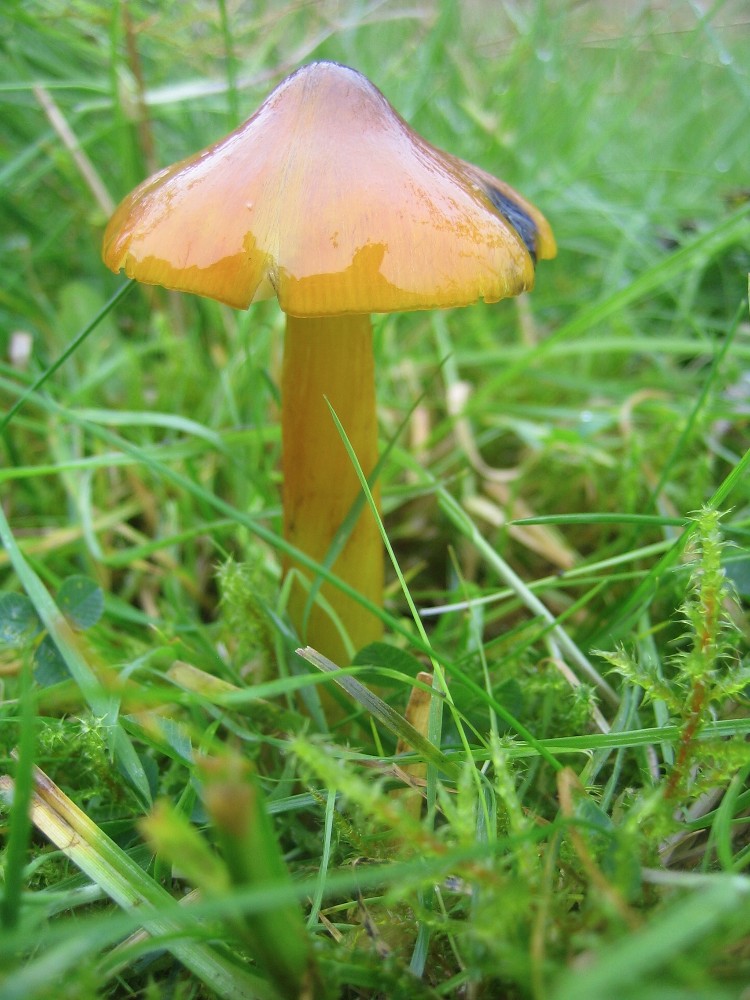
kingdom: Fungi
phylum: Basidiomycota
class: Agaricomycetes
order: Agaricales
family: Hygrophoraceae
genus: Hygrocybe
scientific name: Hygrocybe conica
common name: kegle-vokshat
